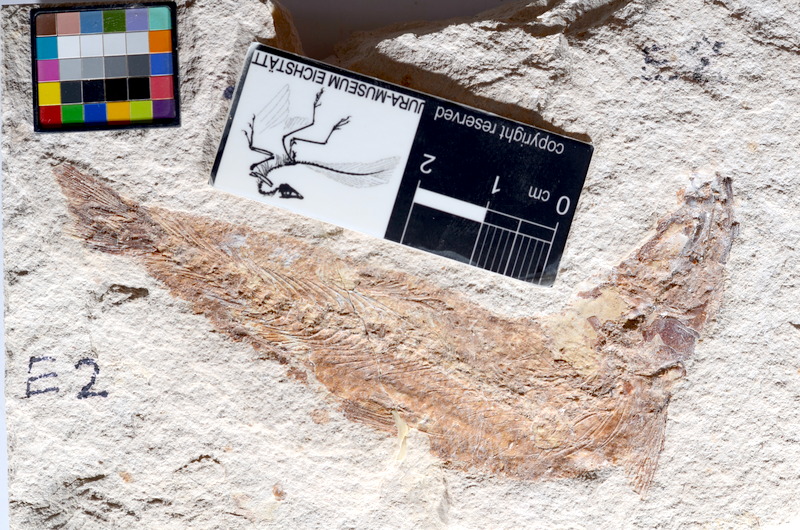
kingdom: Animalia
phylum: Chordata
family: Ascalaboidae
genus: Tharsis
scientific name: Tharsis dubius
